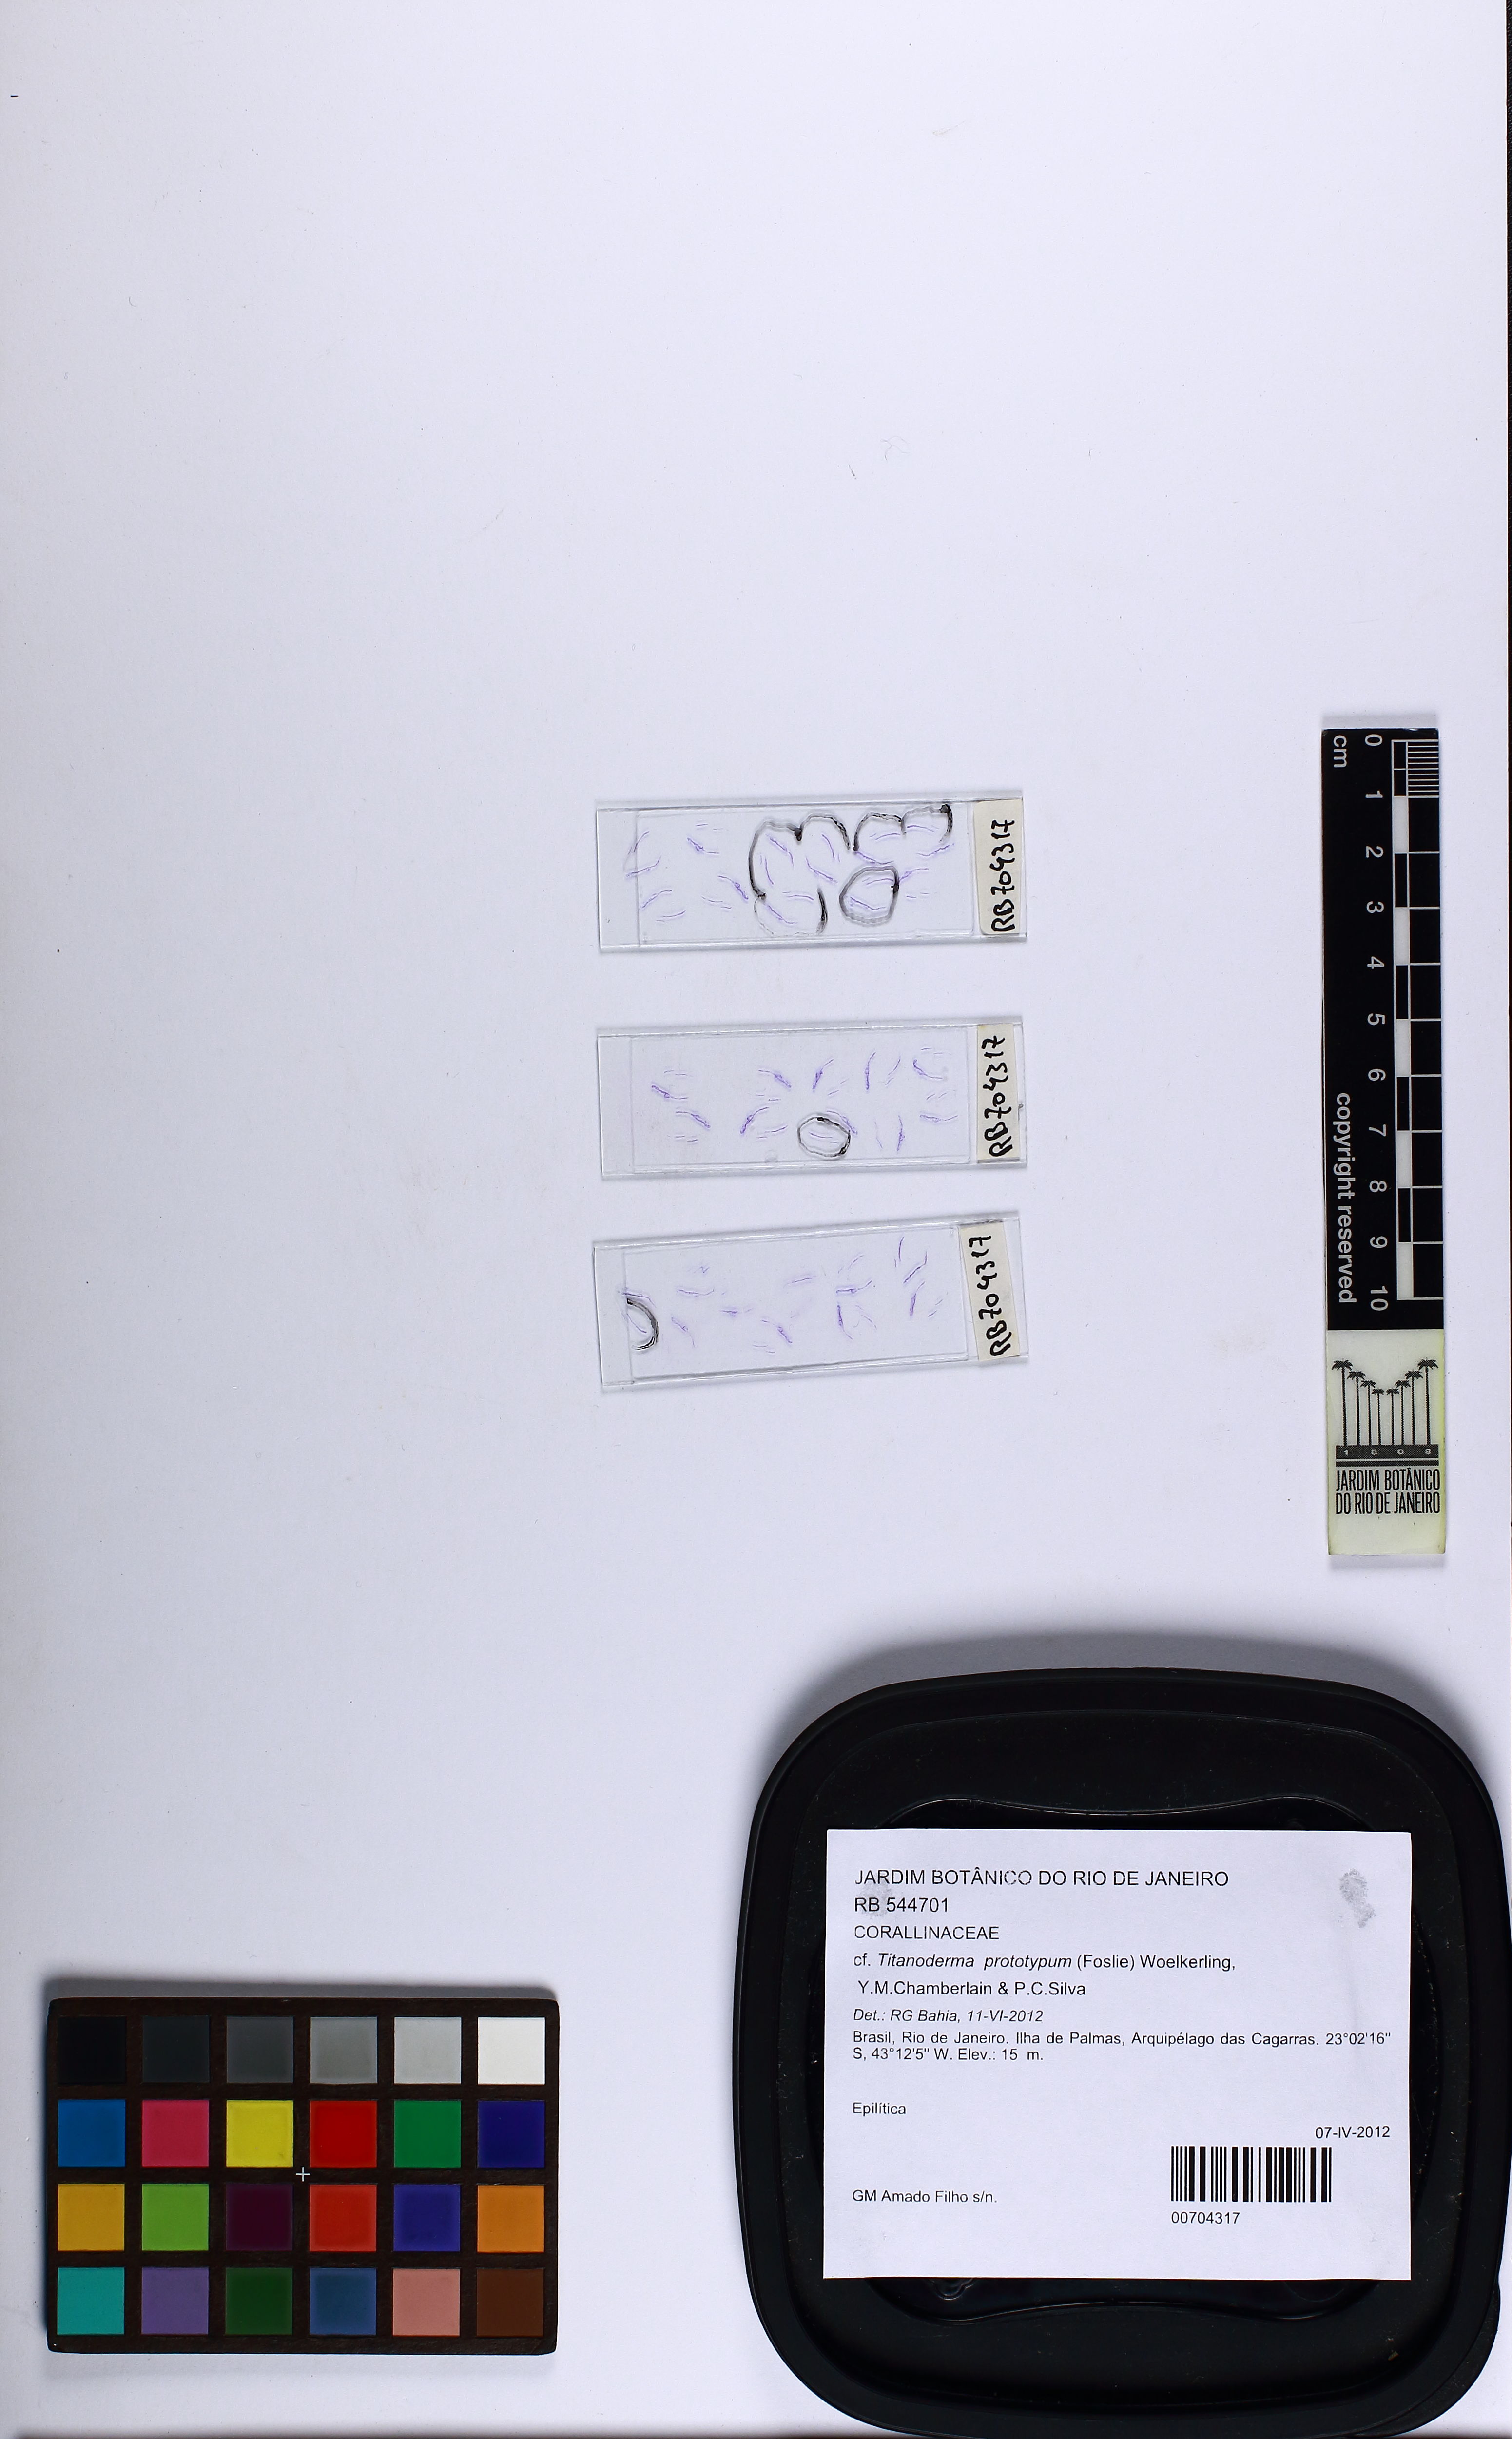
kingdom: Plantae
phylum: Rhodophyta
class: Florideophyceae
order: Corallinales
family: Lithophyllaceae
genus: Lithophyllum
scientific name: Lithophyllum prototypum
